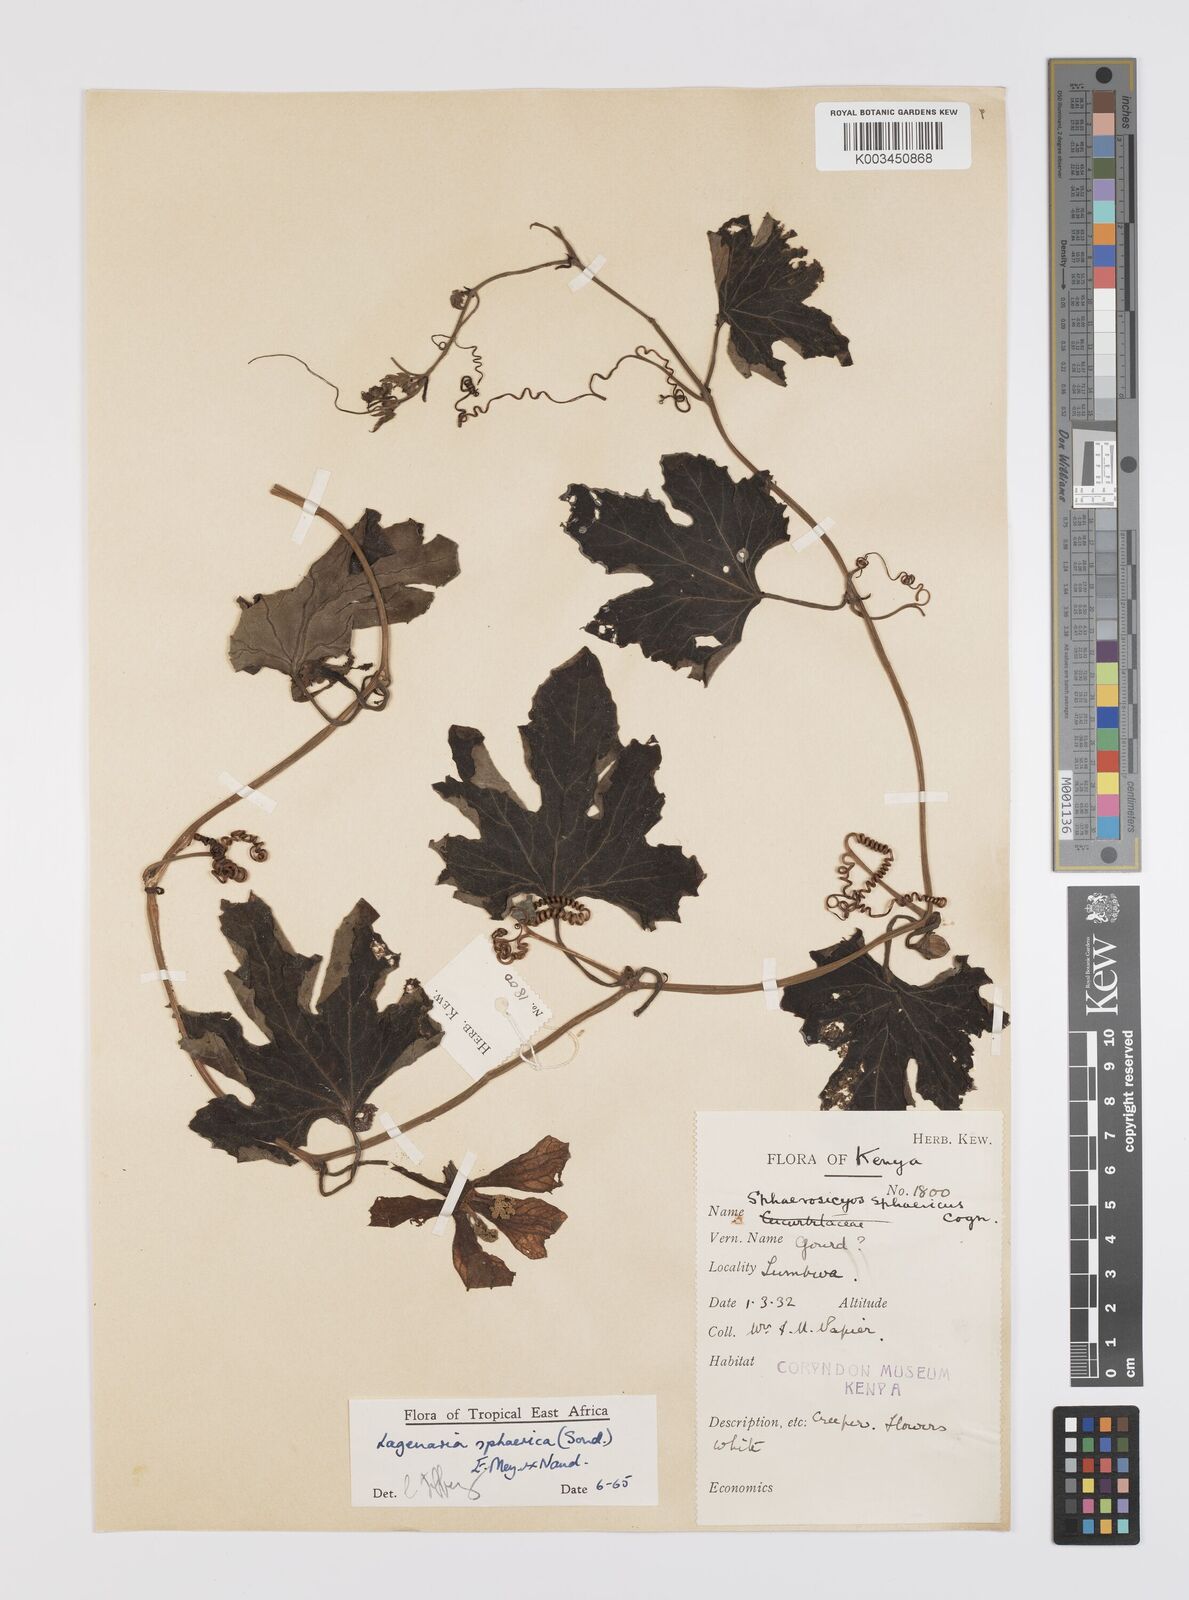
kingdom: Plantae
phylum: Tracheophyta
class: Magnoliopsida
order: Cucurbitales
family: Cucurbitaceae
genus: Lagenaria
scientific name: Lagenaria sphaerica
